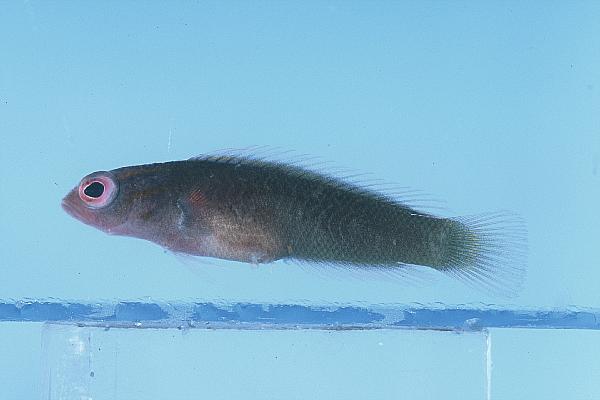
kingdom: Animalia
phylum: Chordata
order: Perciformes
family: Pseudochromidae
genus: Chlidichthys
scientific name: Chlidichthys foudioides
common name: Fody dottyback
